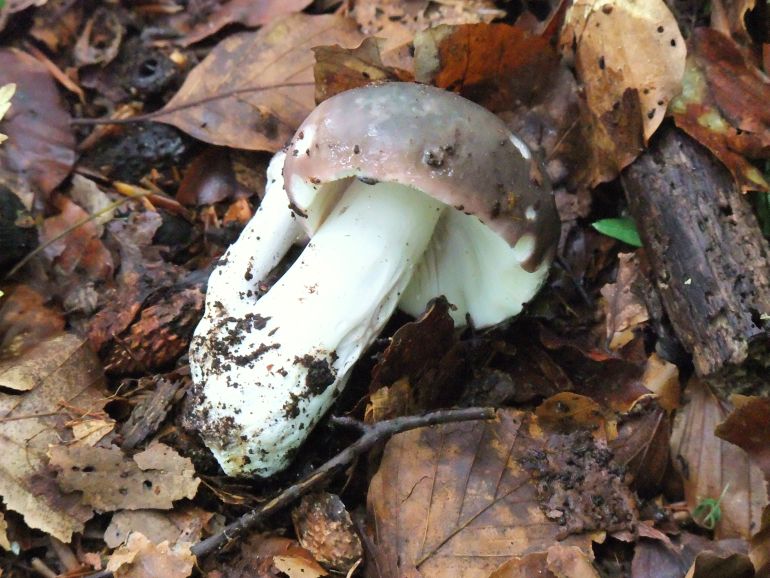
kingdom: Fungi
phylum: Basidiomycota
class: Agaricomycetes
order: Russulales
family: Russulaceae
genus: Russula
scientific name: Russula cyanoxantha
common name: broget skørhat
